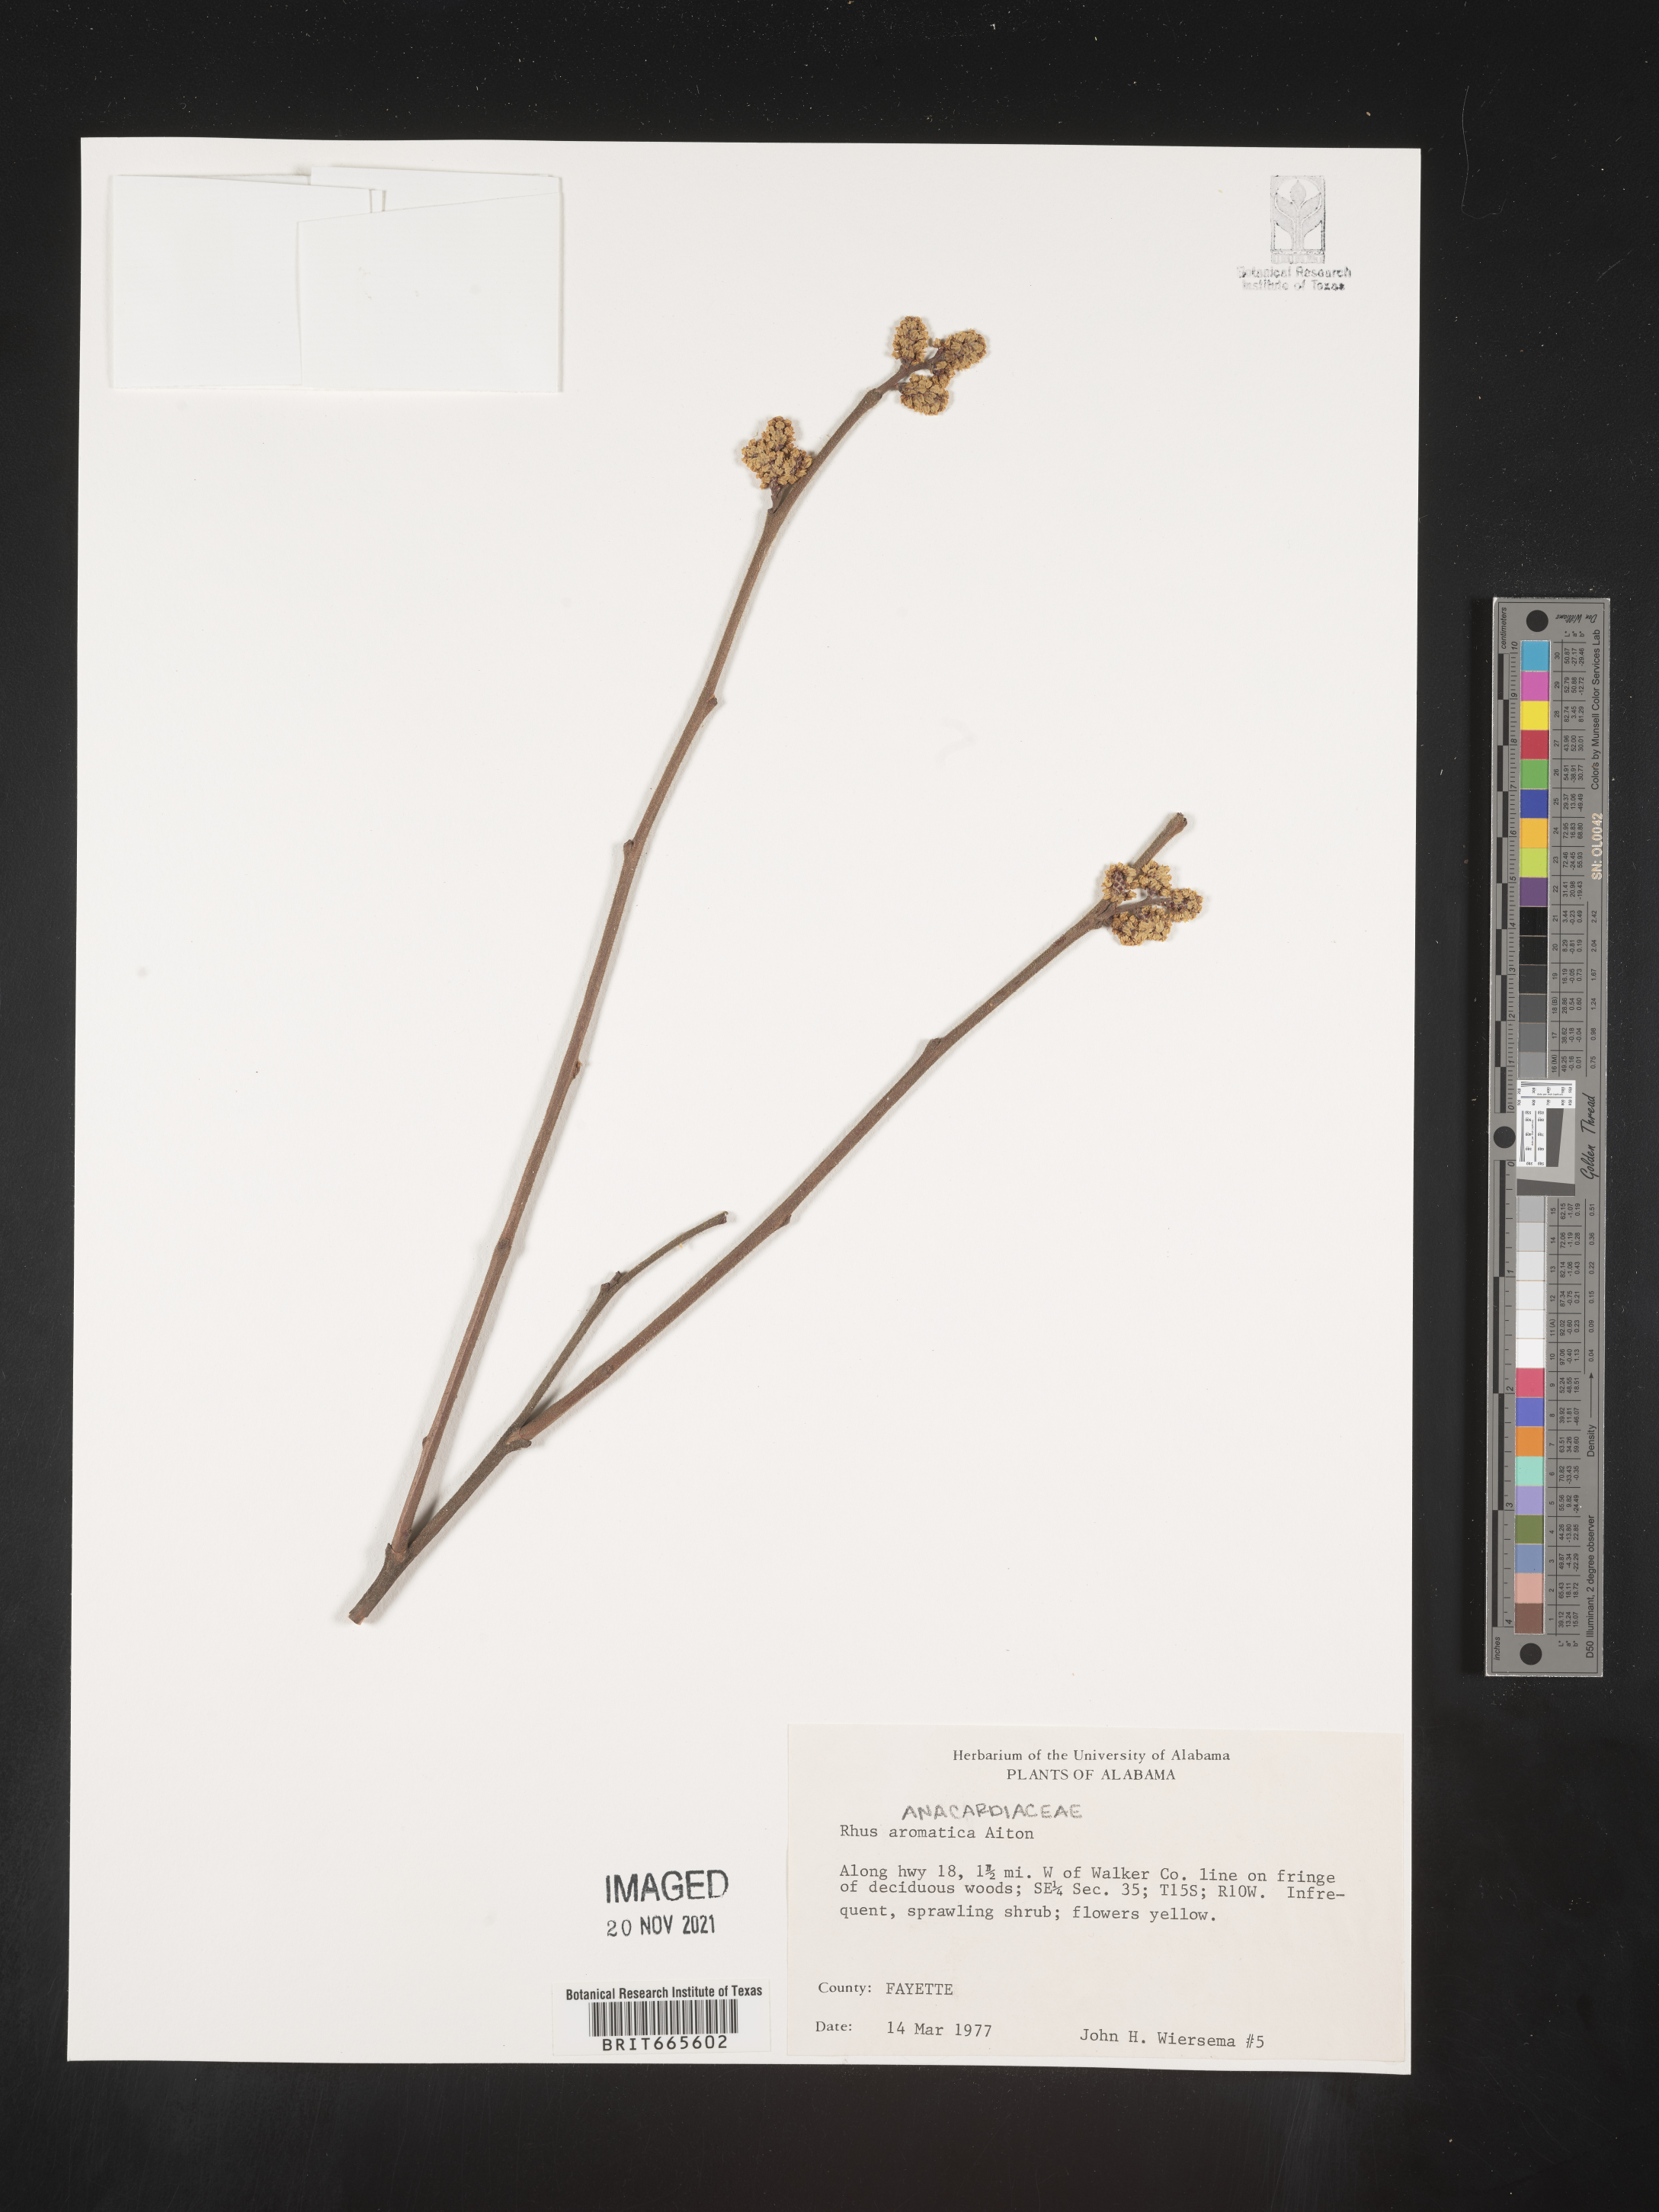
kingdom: Plantae
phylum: Tracheophyta
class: Magnoliopsida
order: Sapindales
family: Anacardiaceae
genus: Rhus
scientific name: Rhus aromatica
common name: Aromatic sumac
